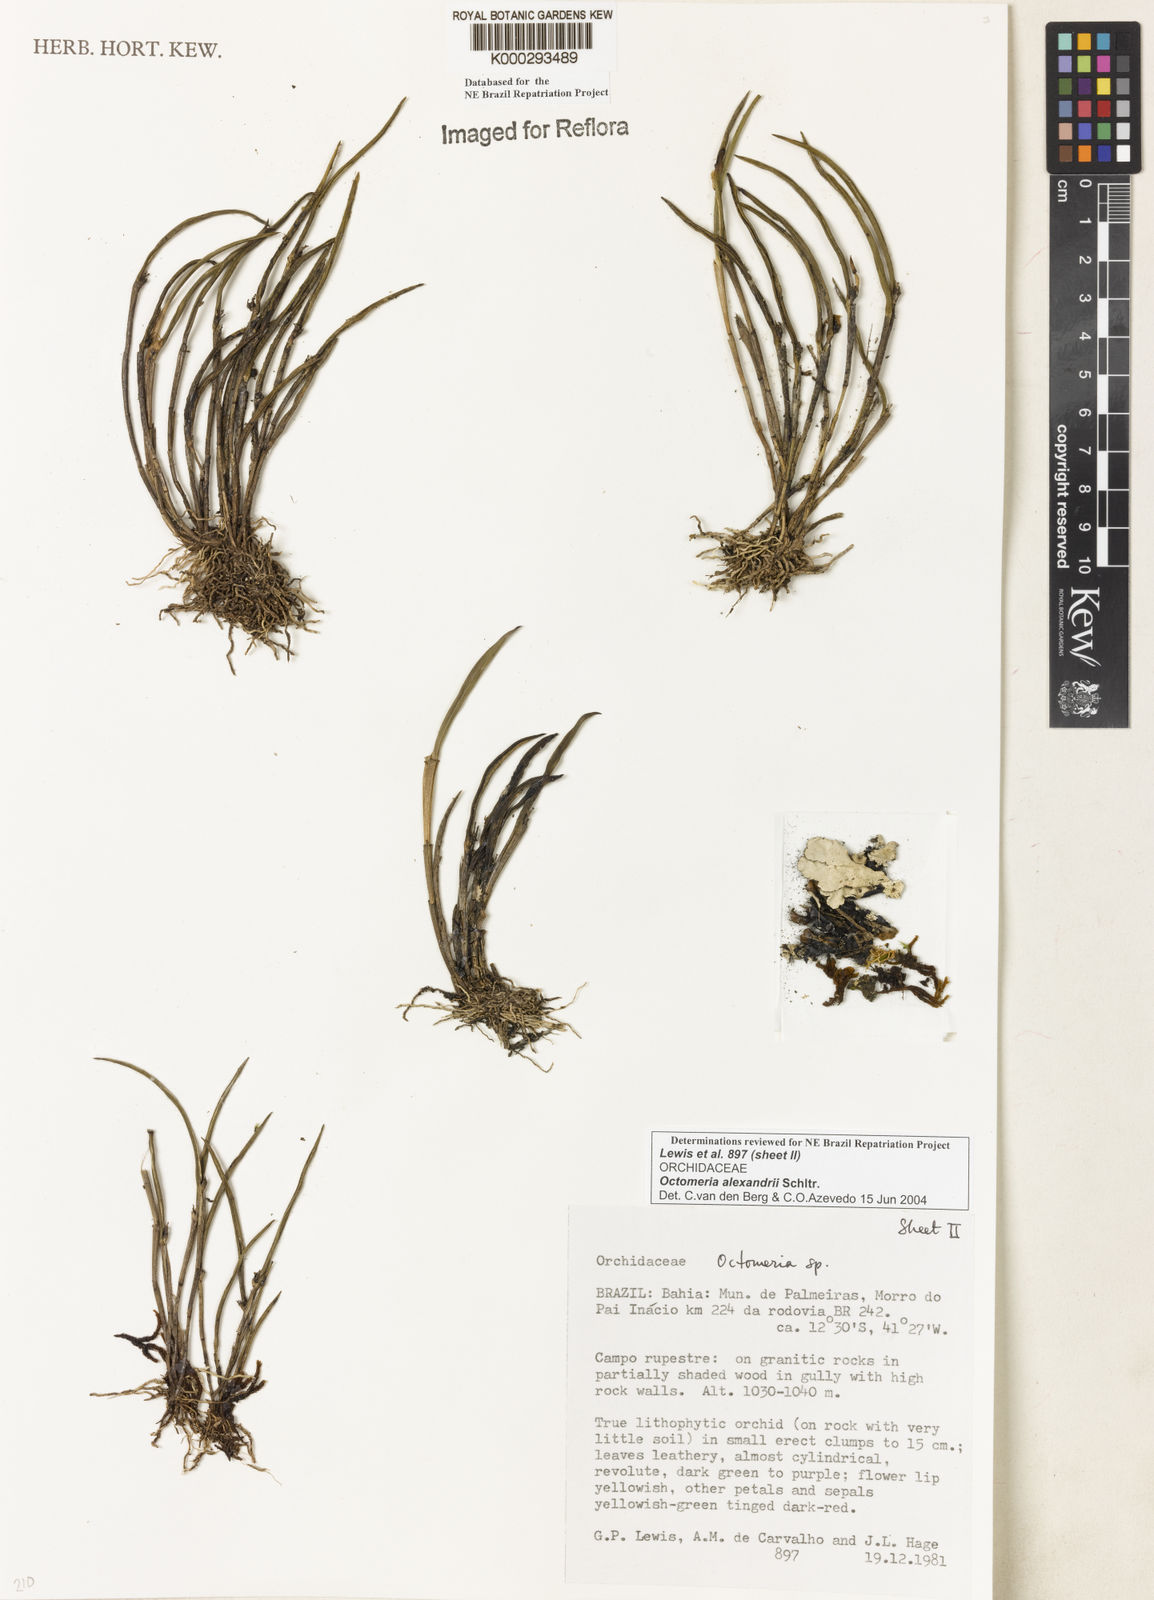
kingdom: Plantae
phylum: Tracheophyta
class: Liliopsida
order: Asparagales
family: Orchidaceae
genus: Octomeria
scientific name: Octomeria alexandri
